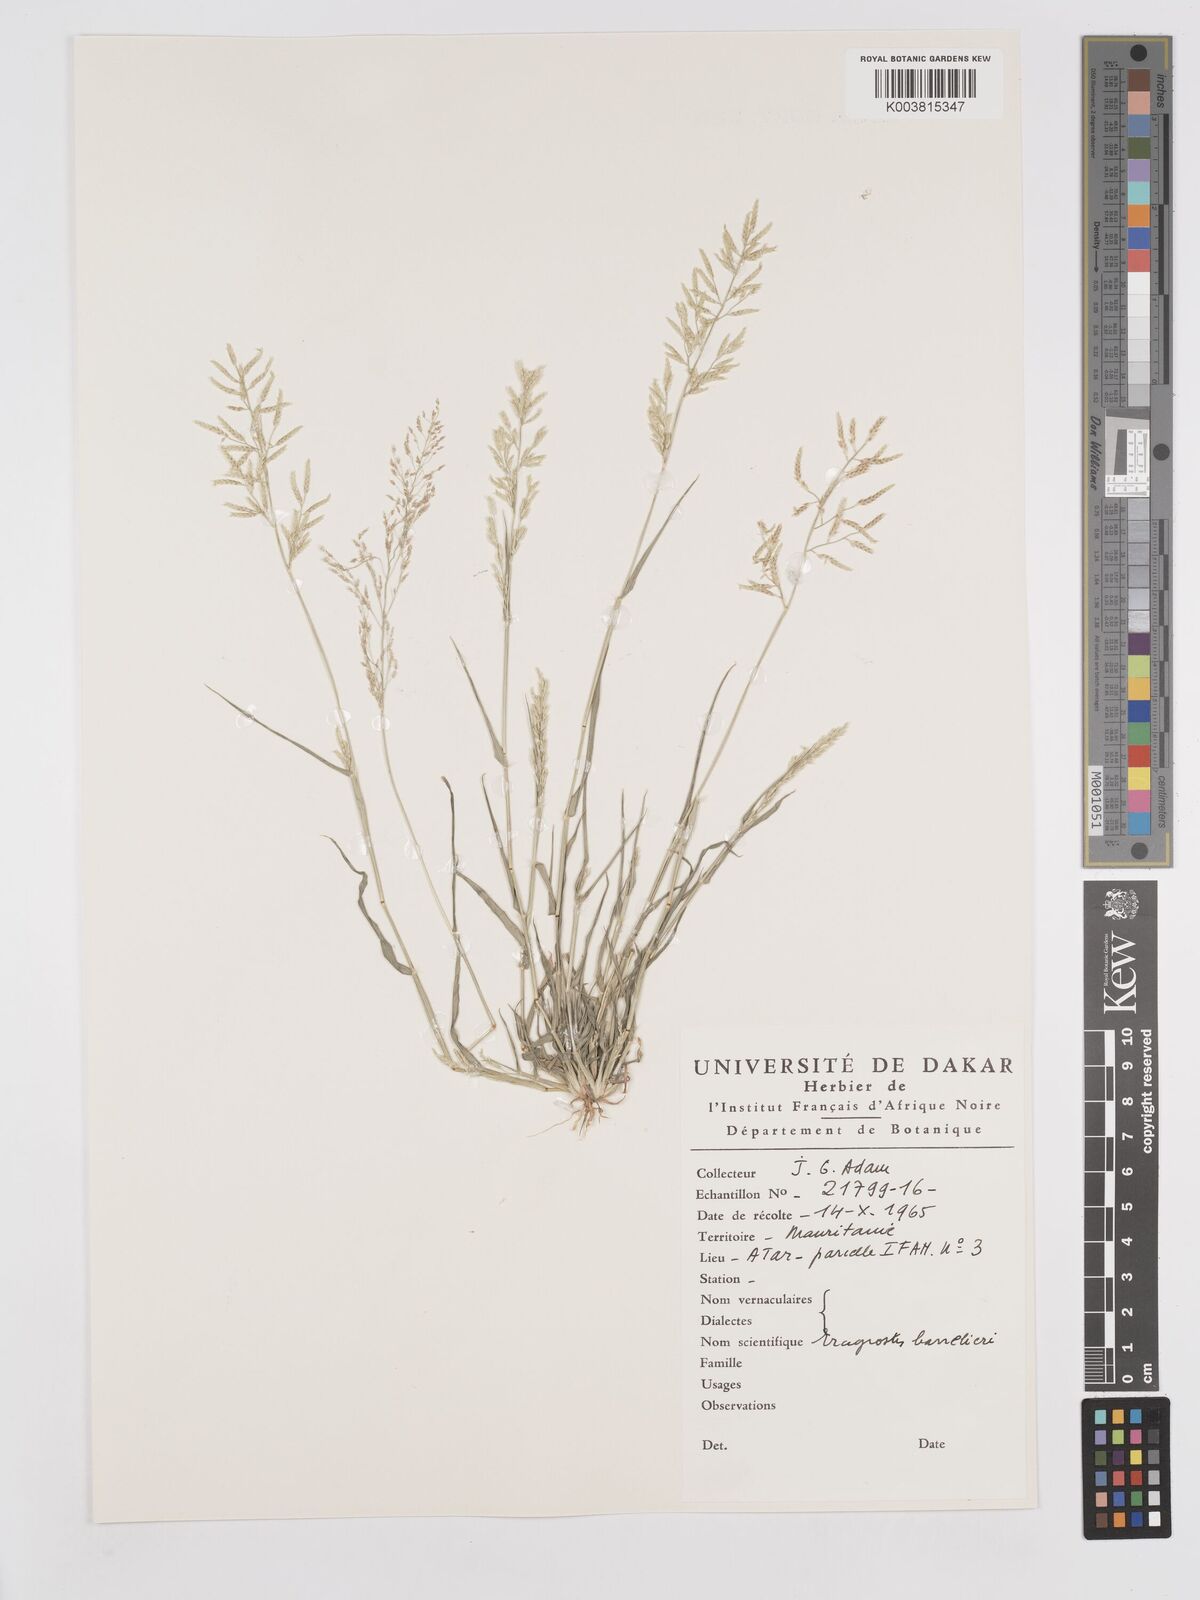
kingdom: Plantae
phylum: Tracheophyta
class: Liliopsida
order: Poales
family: Poaceae
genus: Eragrostis
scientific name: Eragrostis barrelieri
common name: Mediterranean lovegrass
